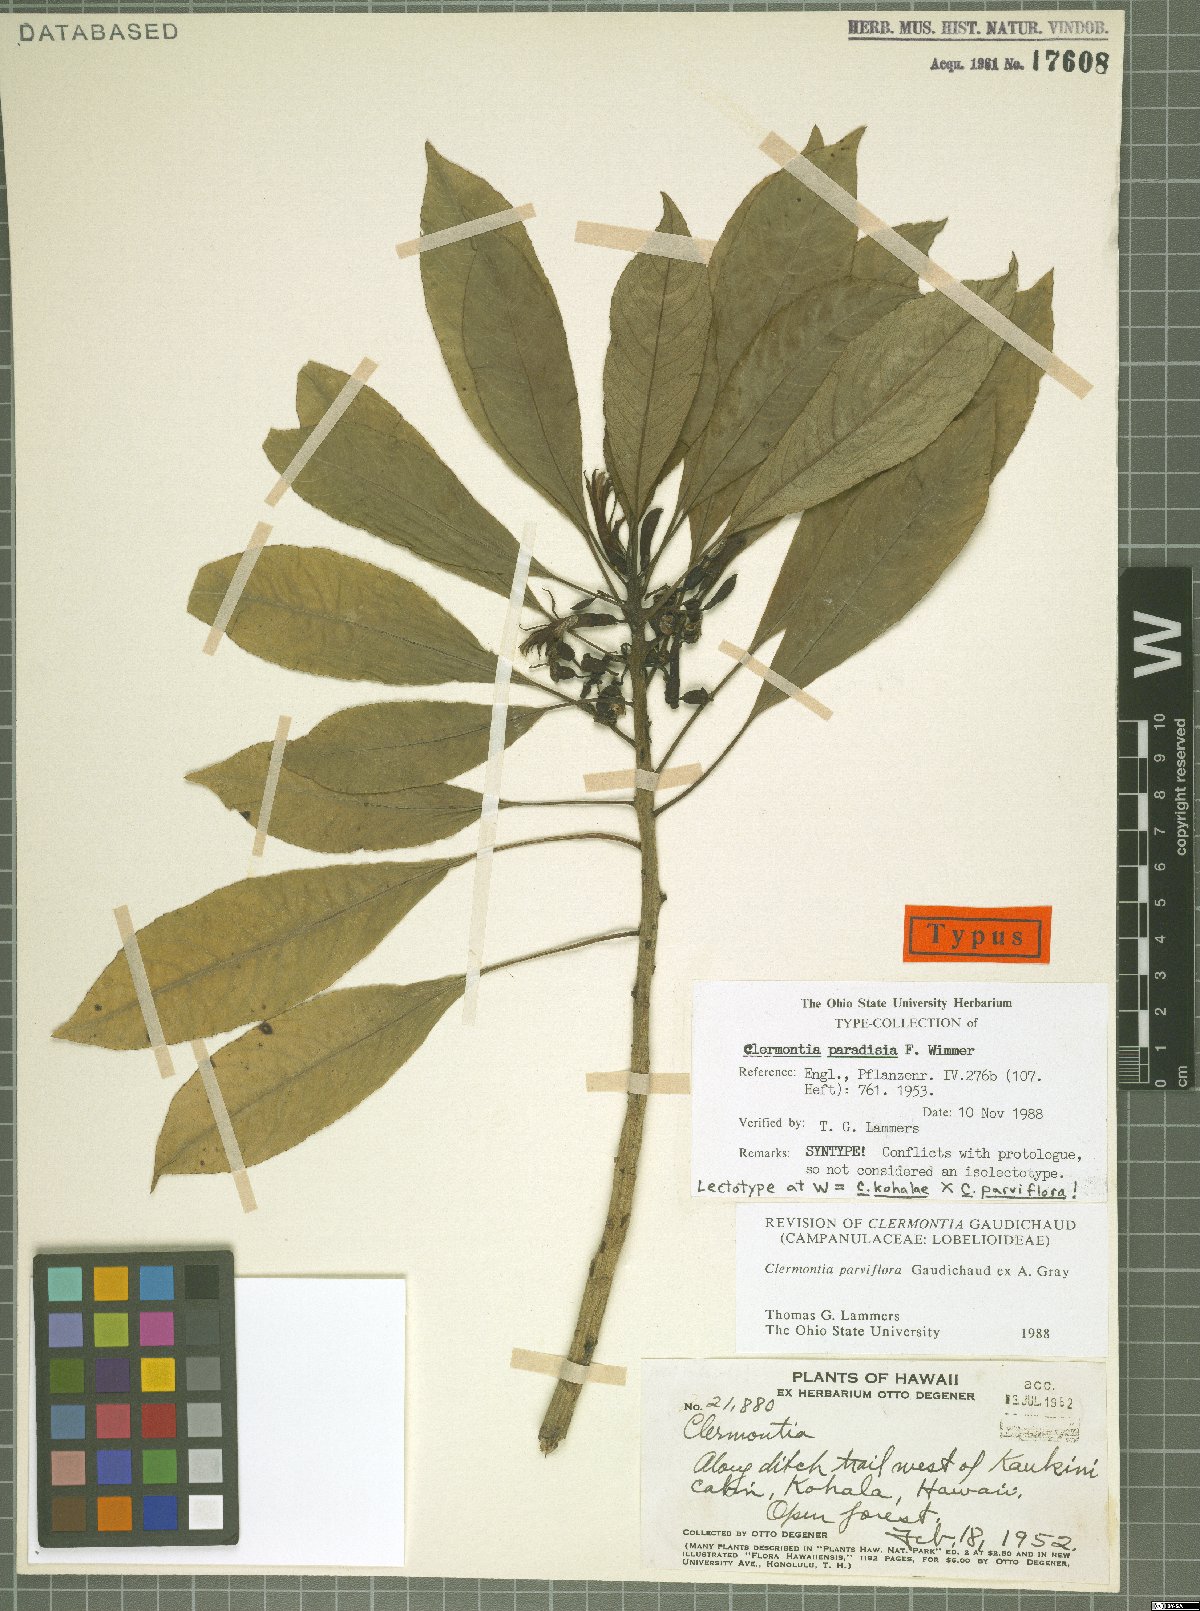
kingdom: Plantae
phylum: Tracheophyta
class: Magnoliopsida
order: Asterales
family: Campanulaceae
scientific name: Campanulaceae
